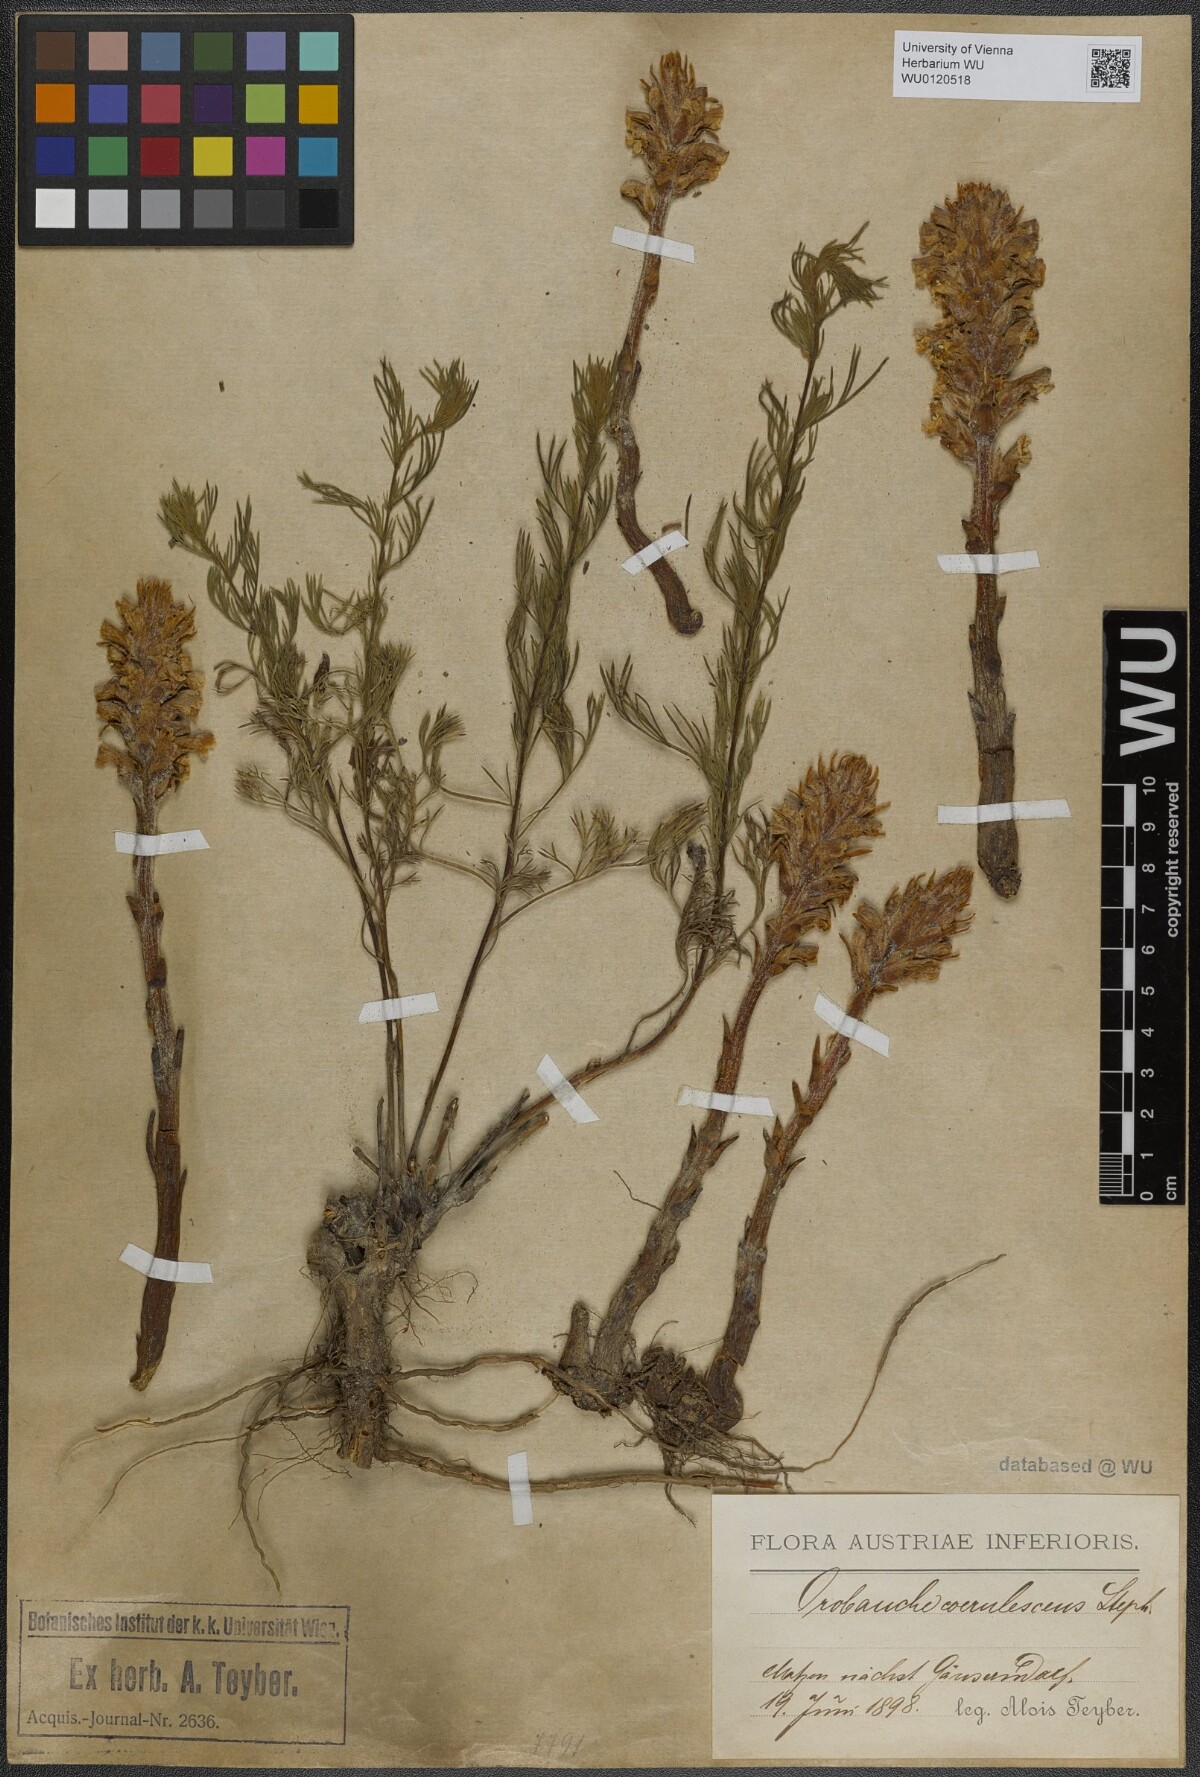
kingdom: Plantae
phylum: Tracheophyta
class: Magnoliopsida
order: Lamiales
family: Orobanchaceae
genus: Orobanche
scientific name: Orobanche coerulescens
